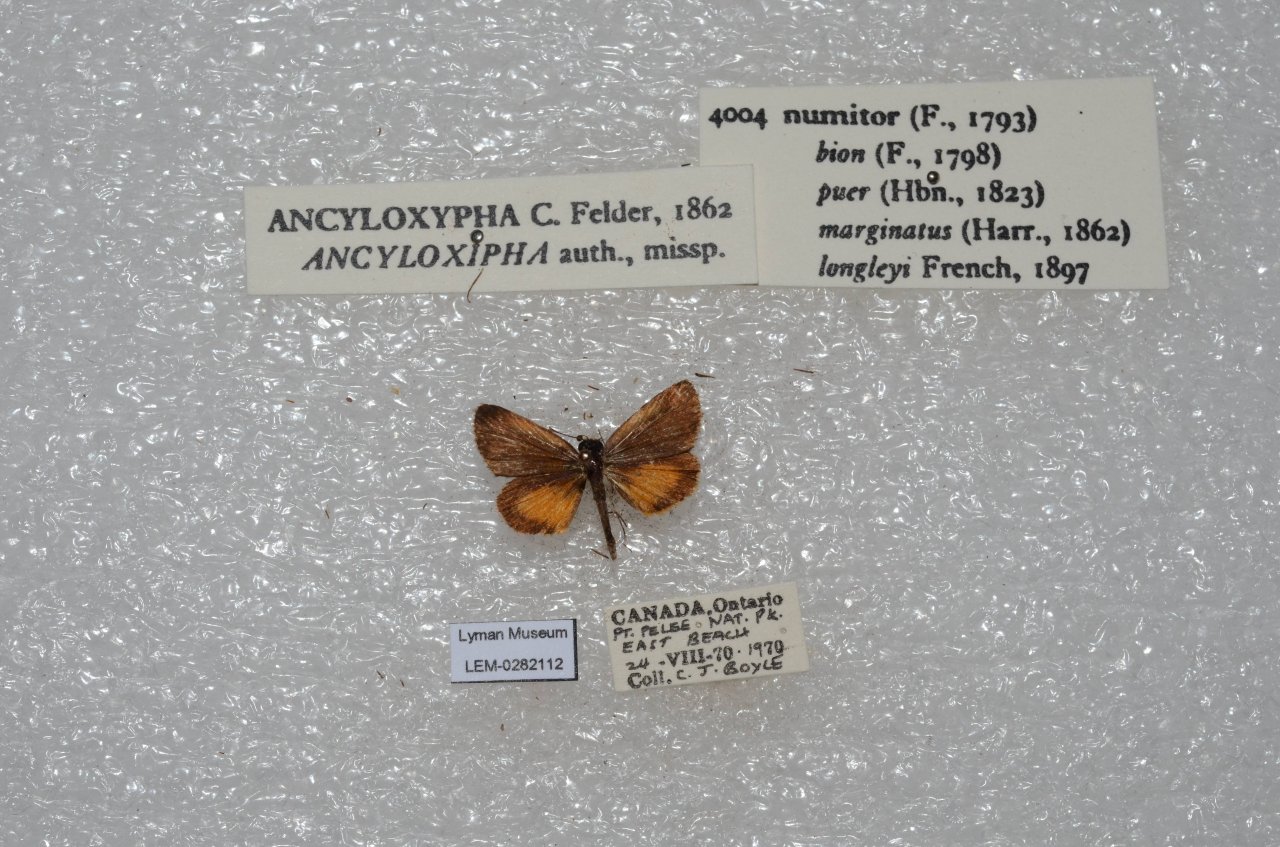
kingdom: Animalia
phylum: Arthropoda
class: Insecta
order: Lepidoptera
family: Hesperiidae
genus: Ancyloxypha
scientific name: Ancyloxypha numitor
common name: Least Skipper
